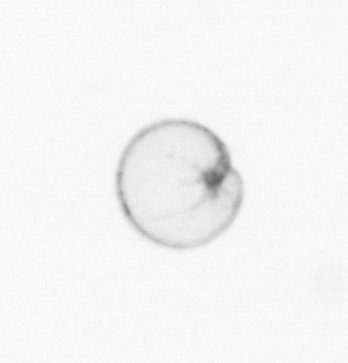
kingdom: Chromista
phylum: Myzozoa
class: Dinophyceae
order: Noctilucales
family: Noctilucaceae
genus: Noctiluca
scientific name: Noctiluca scintillans
